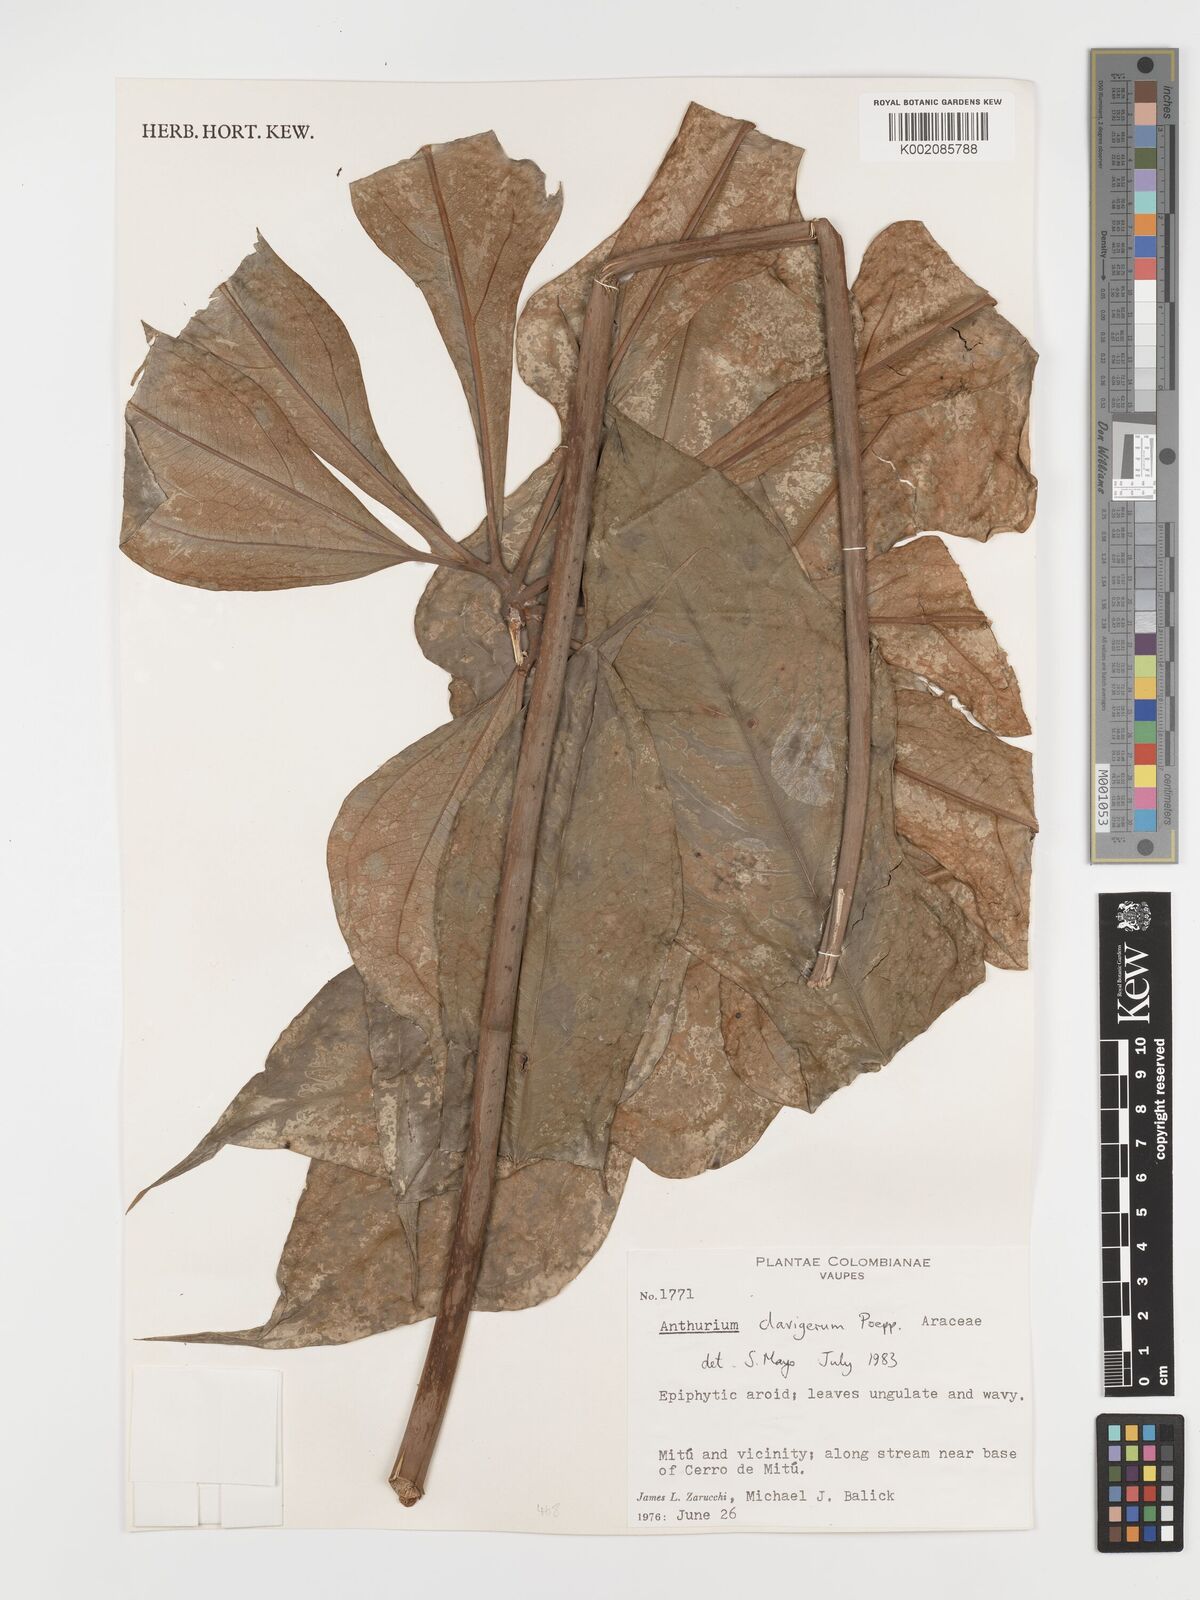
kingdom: Plantae
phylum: Tracheophyta
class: Liliopsida
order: Alismatales
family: Araceae
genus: Anthurium
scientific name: Anthurium clavigerum
